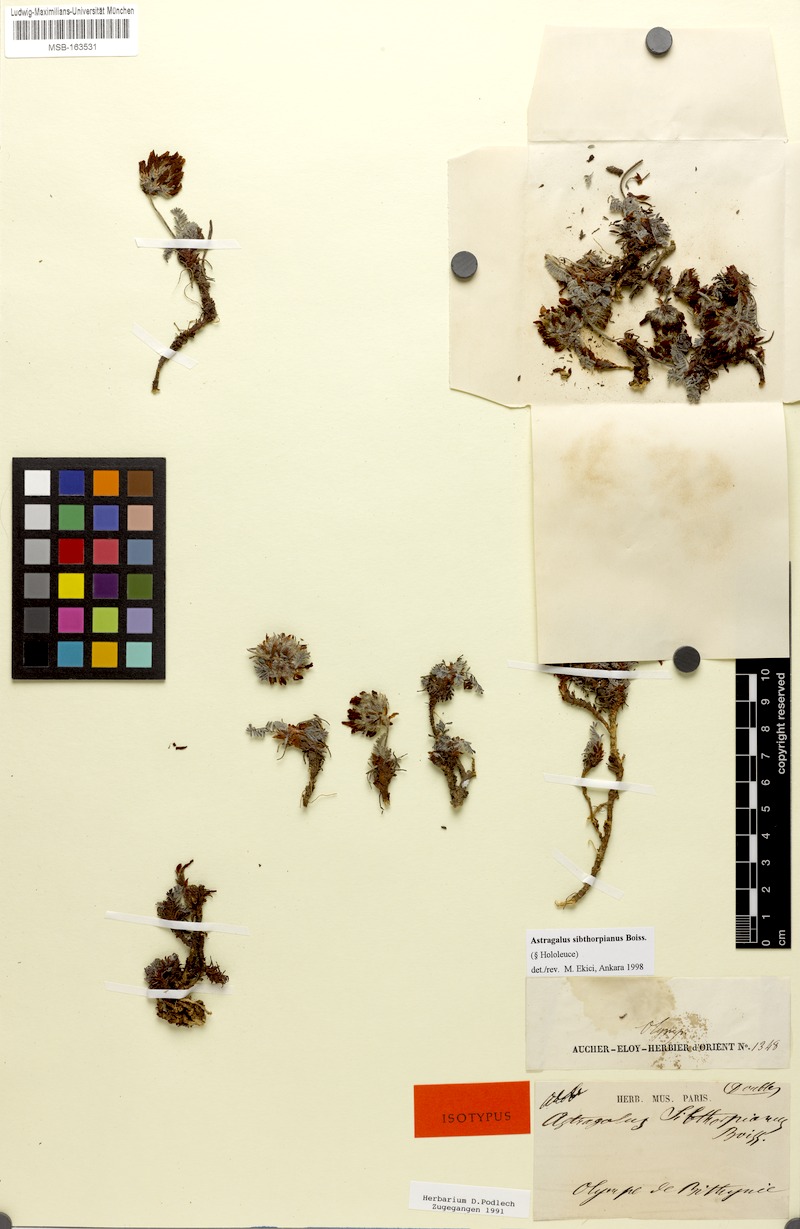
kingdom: Plantae
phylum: Tracheophyta
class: Magnoliopsida
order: Fabales
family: Fabaceae
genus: Astragalus
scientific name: Astragalus sibthorpianus
